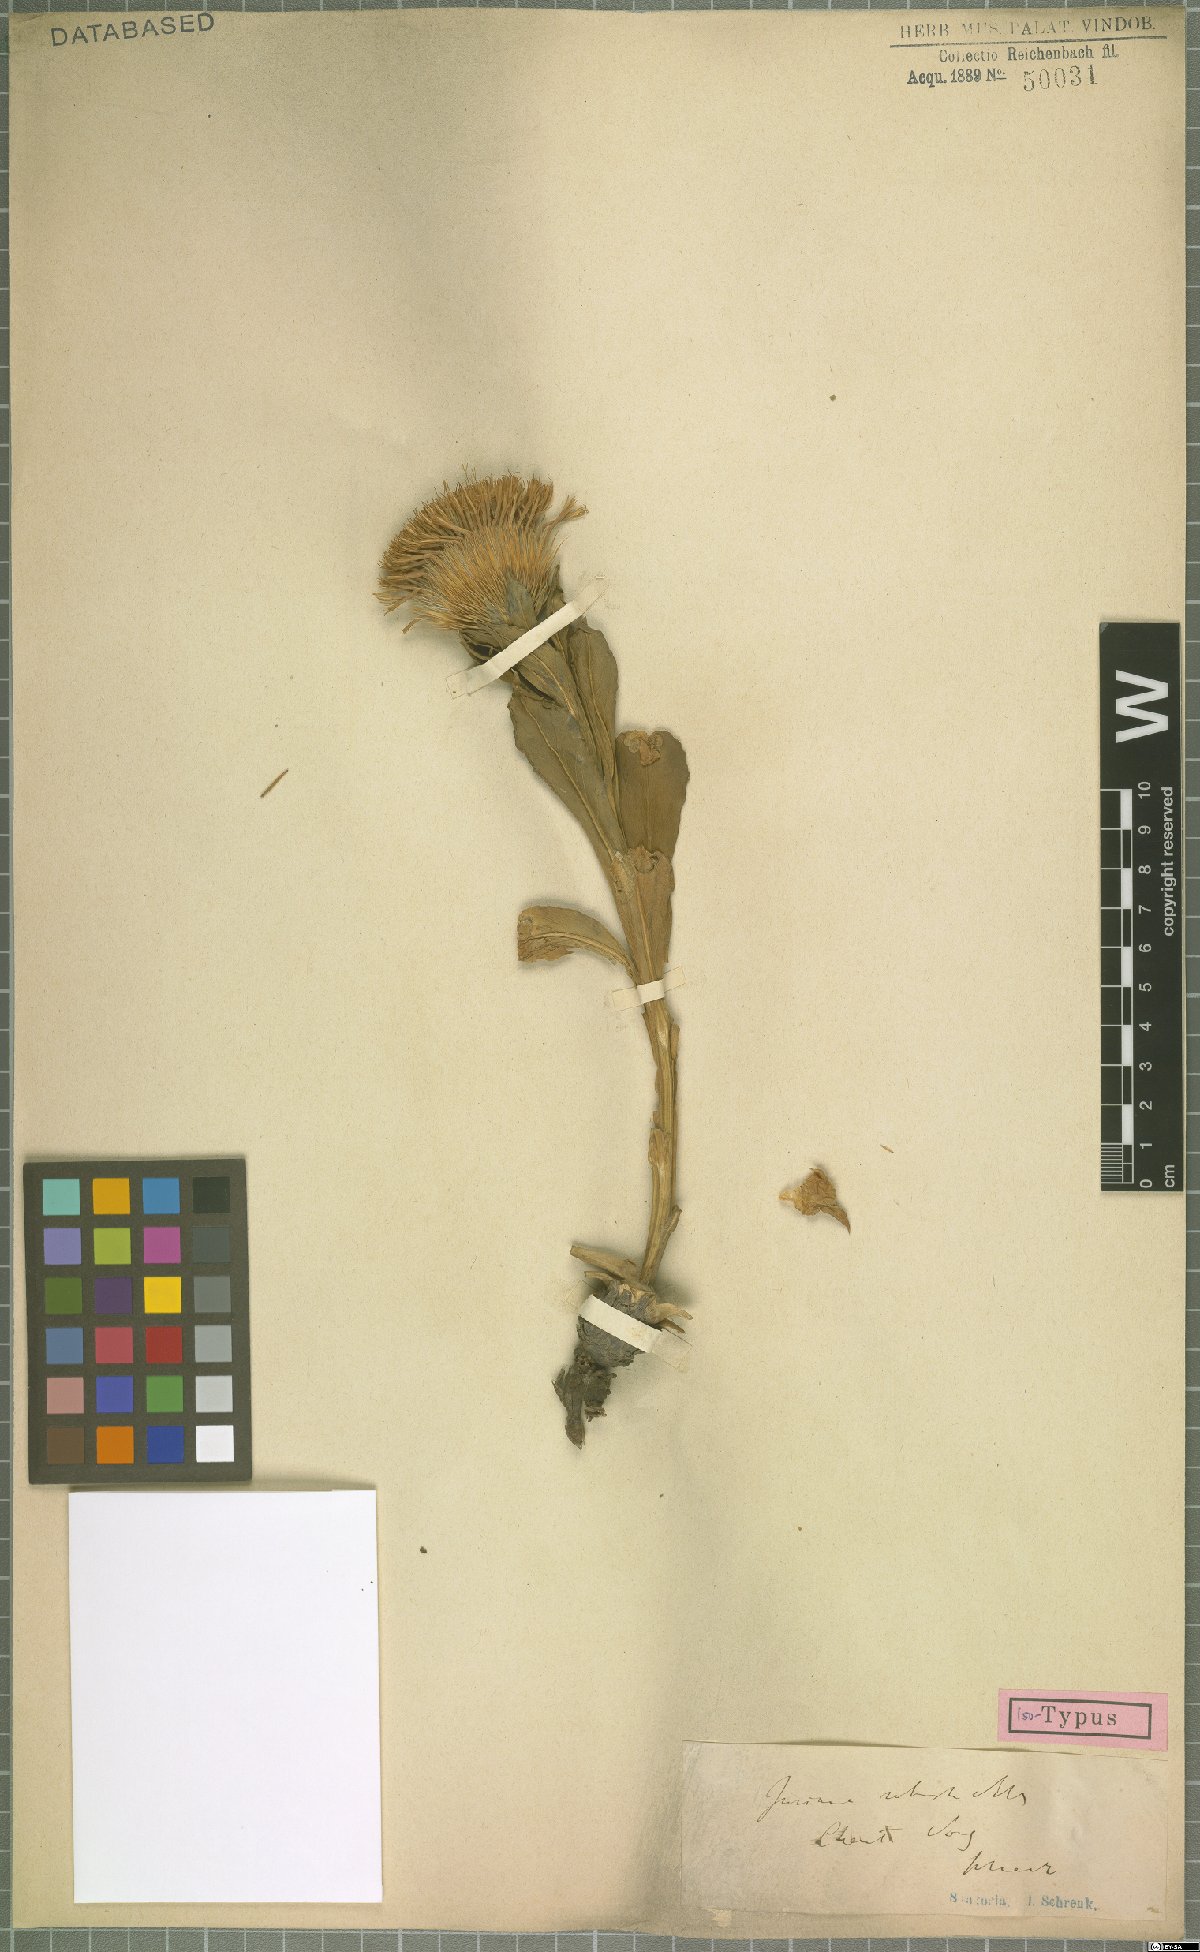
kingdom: Plantae
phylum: Tracheophyta
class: Magnoliopsida
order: Asterales
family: Asteraceae
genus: Jurinea
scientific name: Jurinea robusta
